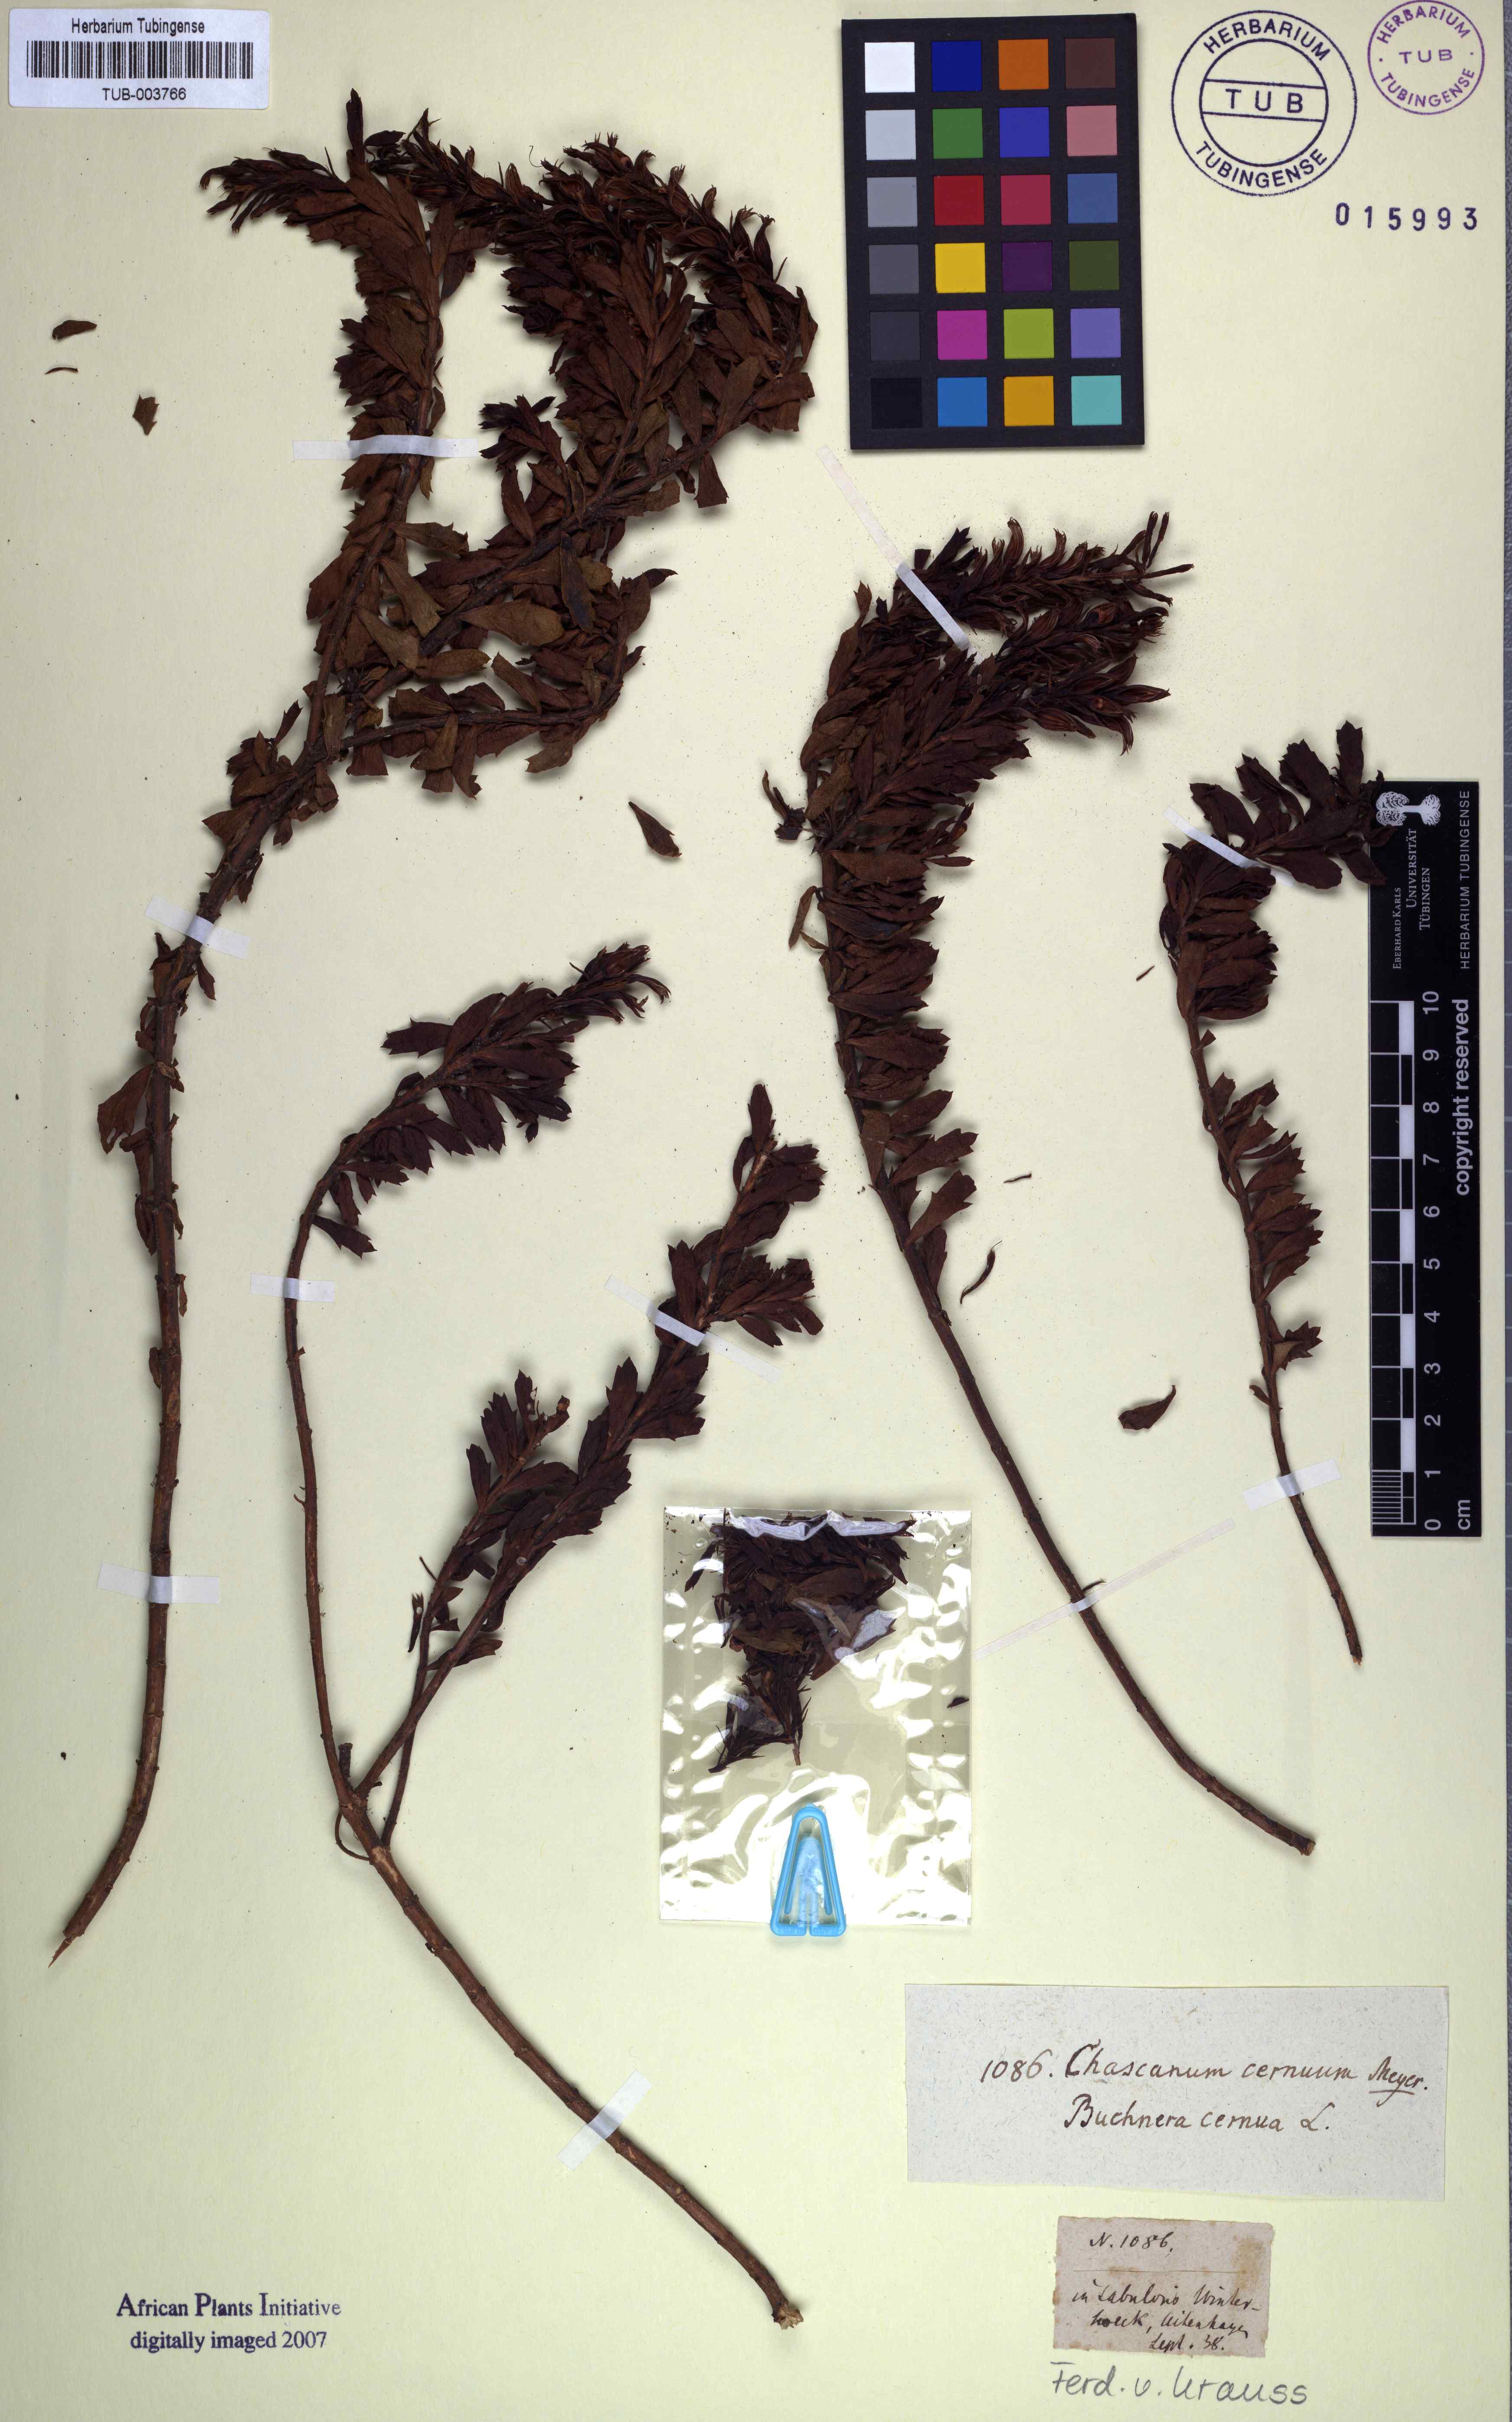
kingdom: Plantae
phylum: Tracheophyta
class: Magnoliopsida
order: Lamiales
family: Verbenaceae
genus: Chascanum
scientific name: Chascanum cernuum
